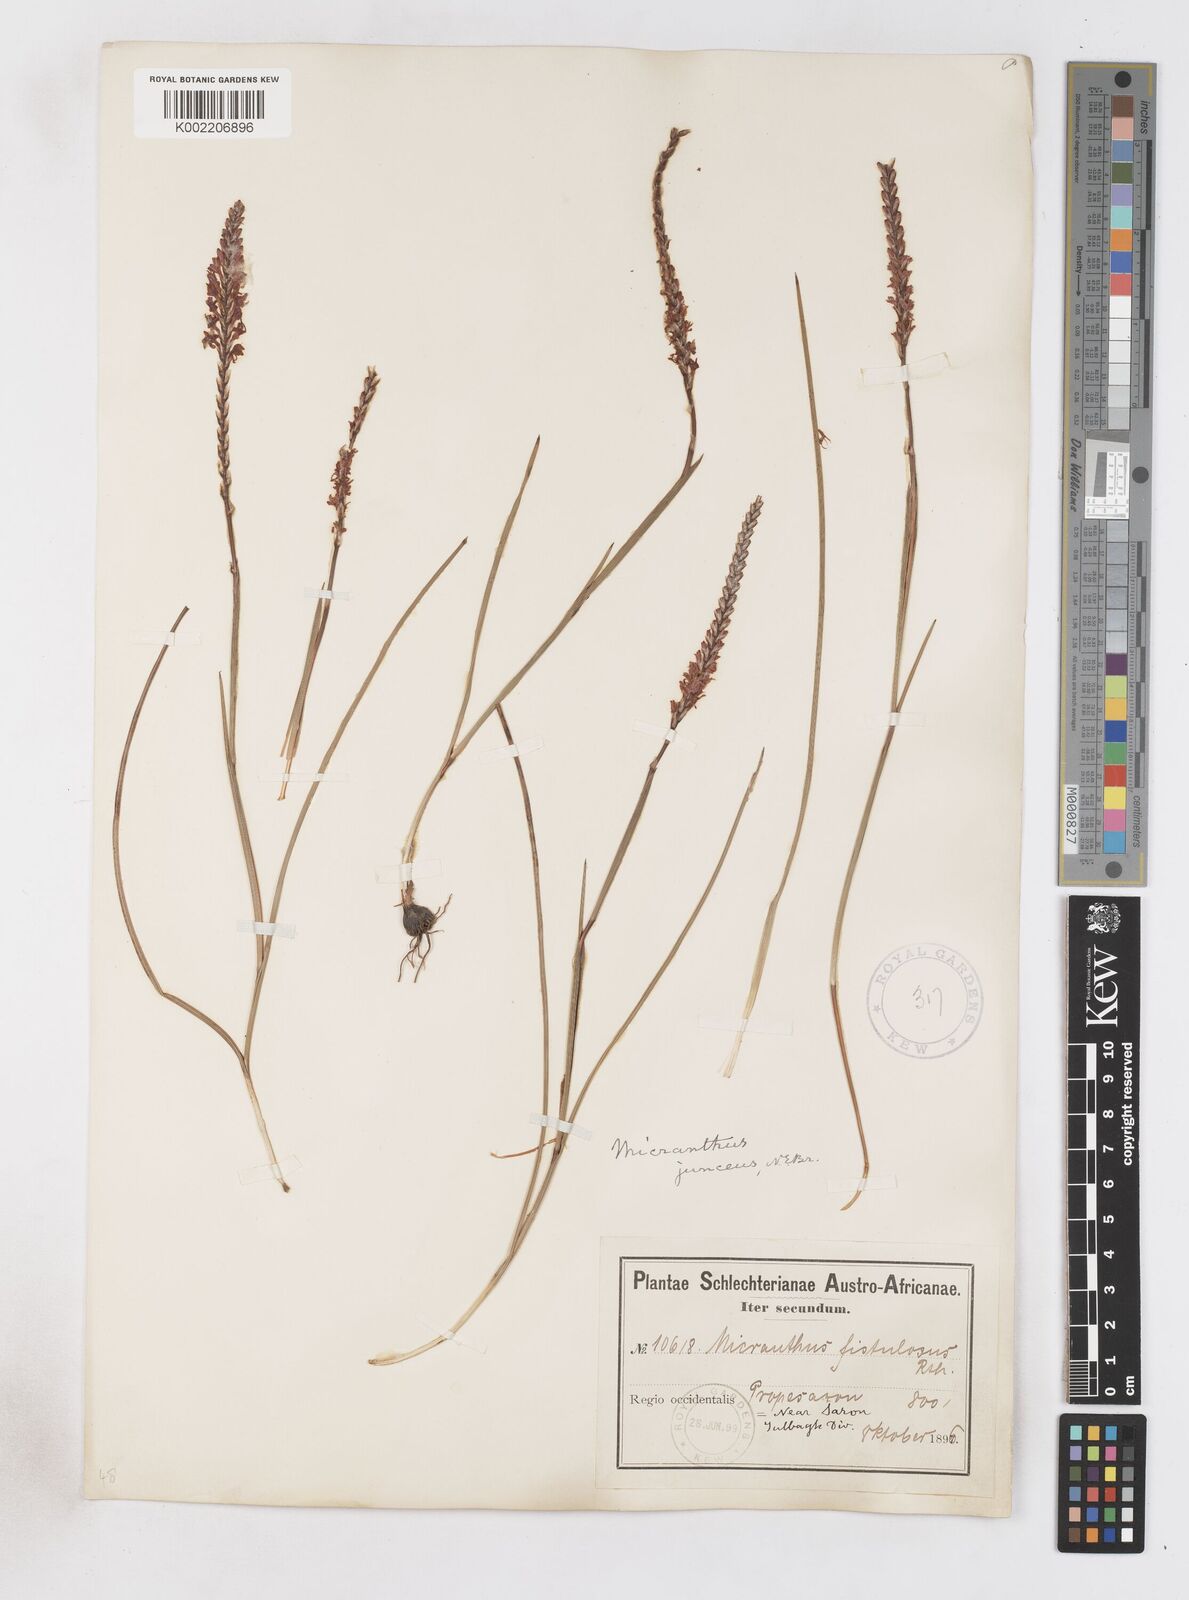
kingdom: Plantae
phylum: Tracheophyta
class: Liliopsida
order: Asparagales
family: Iridaceae
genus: Micranthus
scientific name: Micranthus plantagineus
